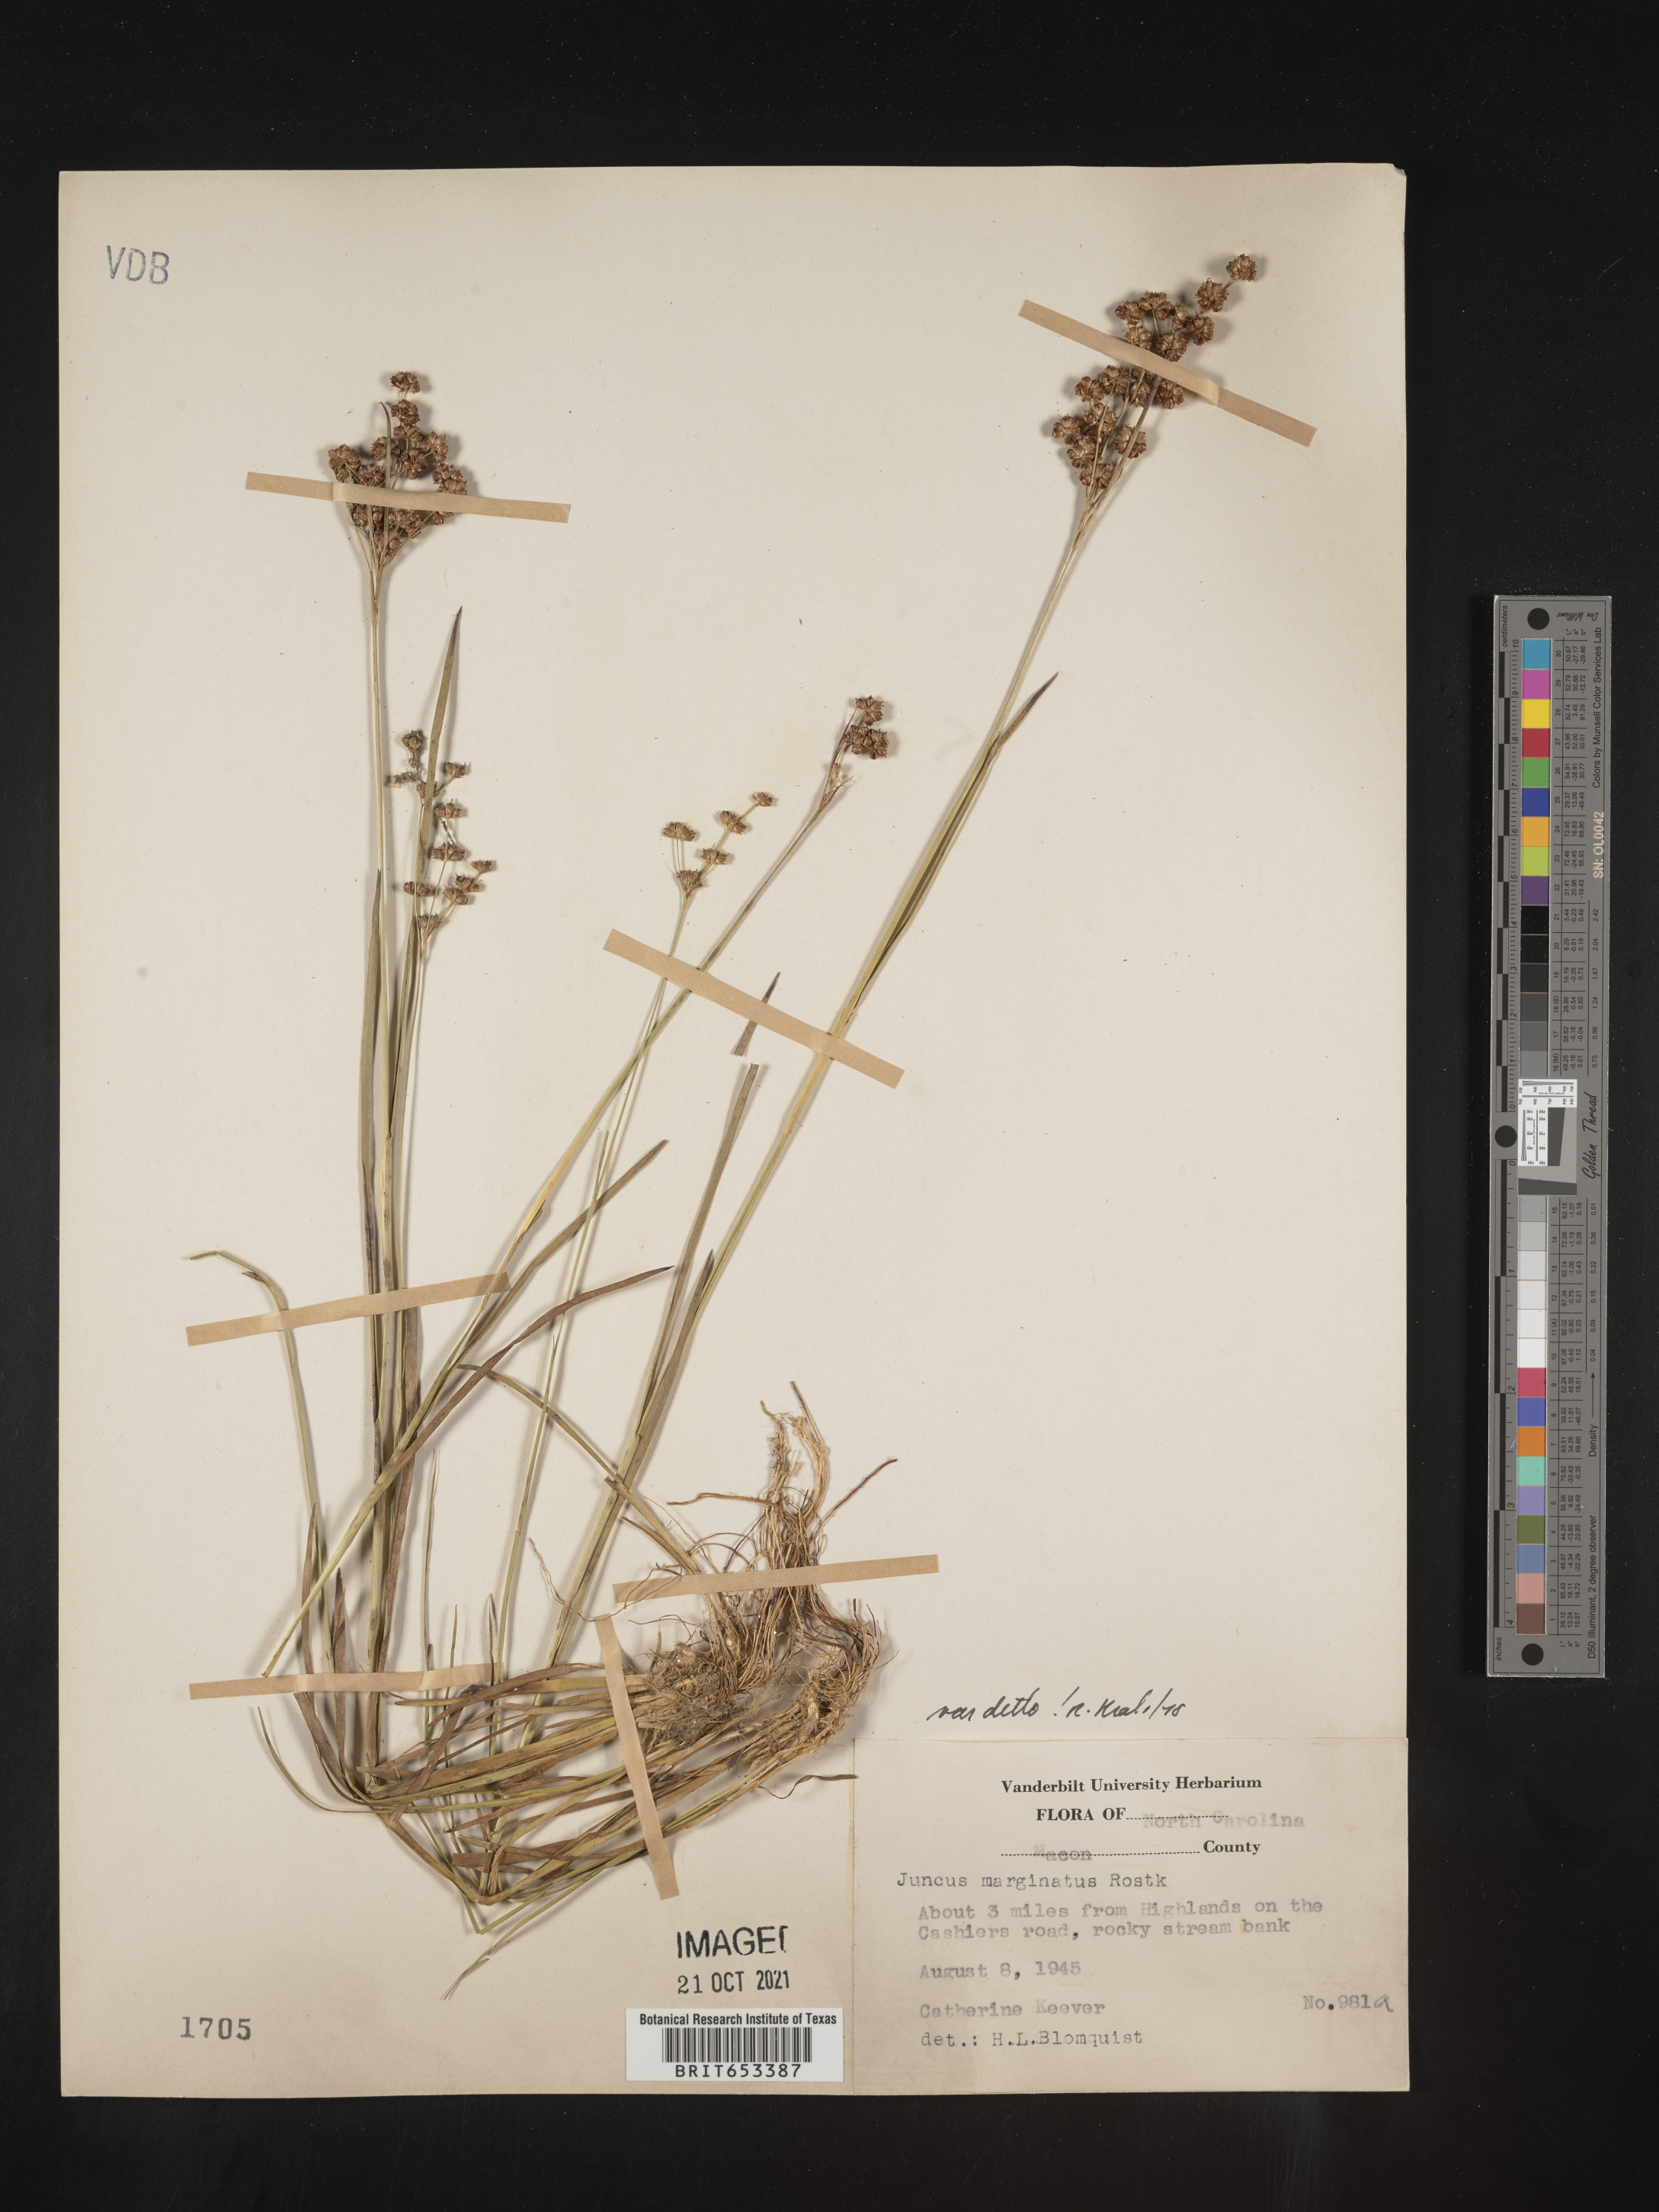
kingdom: Plantae
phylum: Tracheophyta
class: Liliopsida
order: Poales
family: Juncaceae
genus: Juncus
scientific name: Juncus marginatus
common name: Grass-leaf rush
